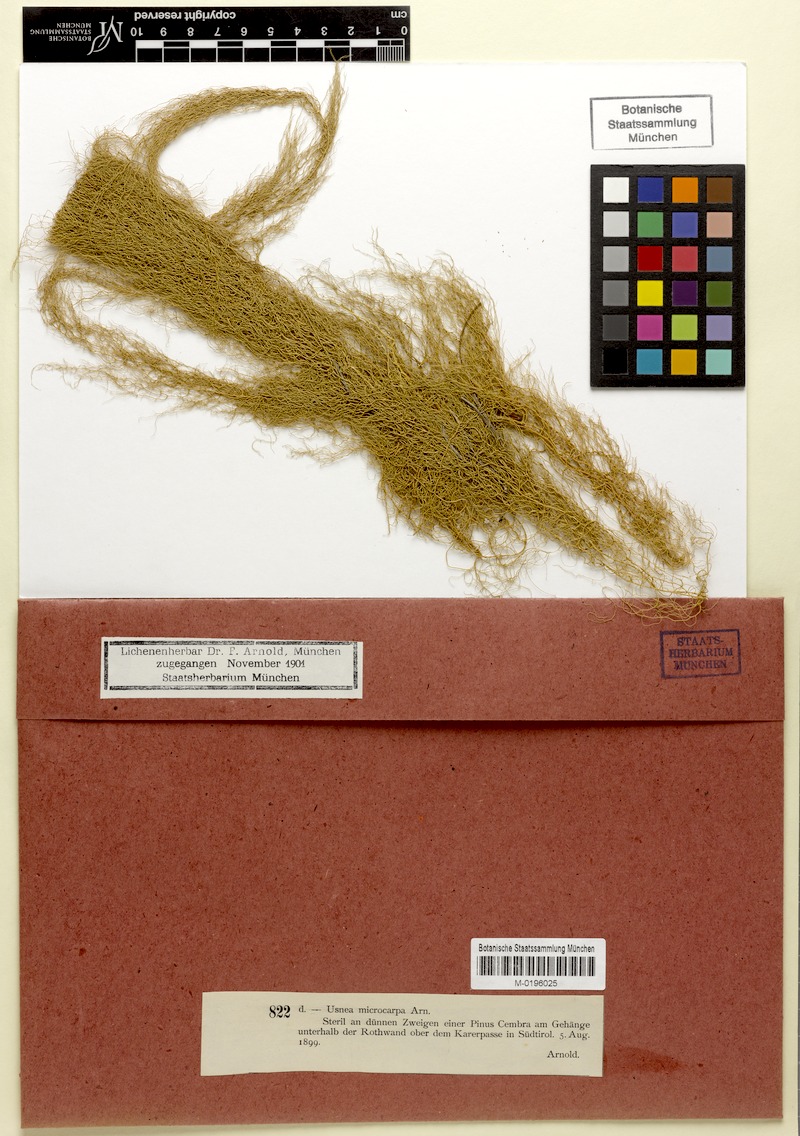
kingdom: Fungi
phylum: Ascomycota
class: Lecanoromycetes
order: Lecanorales
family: Parmeliaceae
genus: Usnea
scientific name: Usnea cavernosa
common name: Pitted beard lichen
